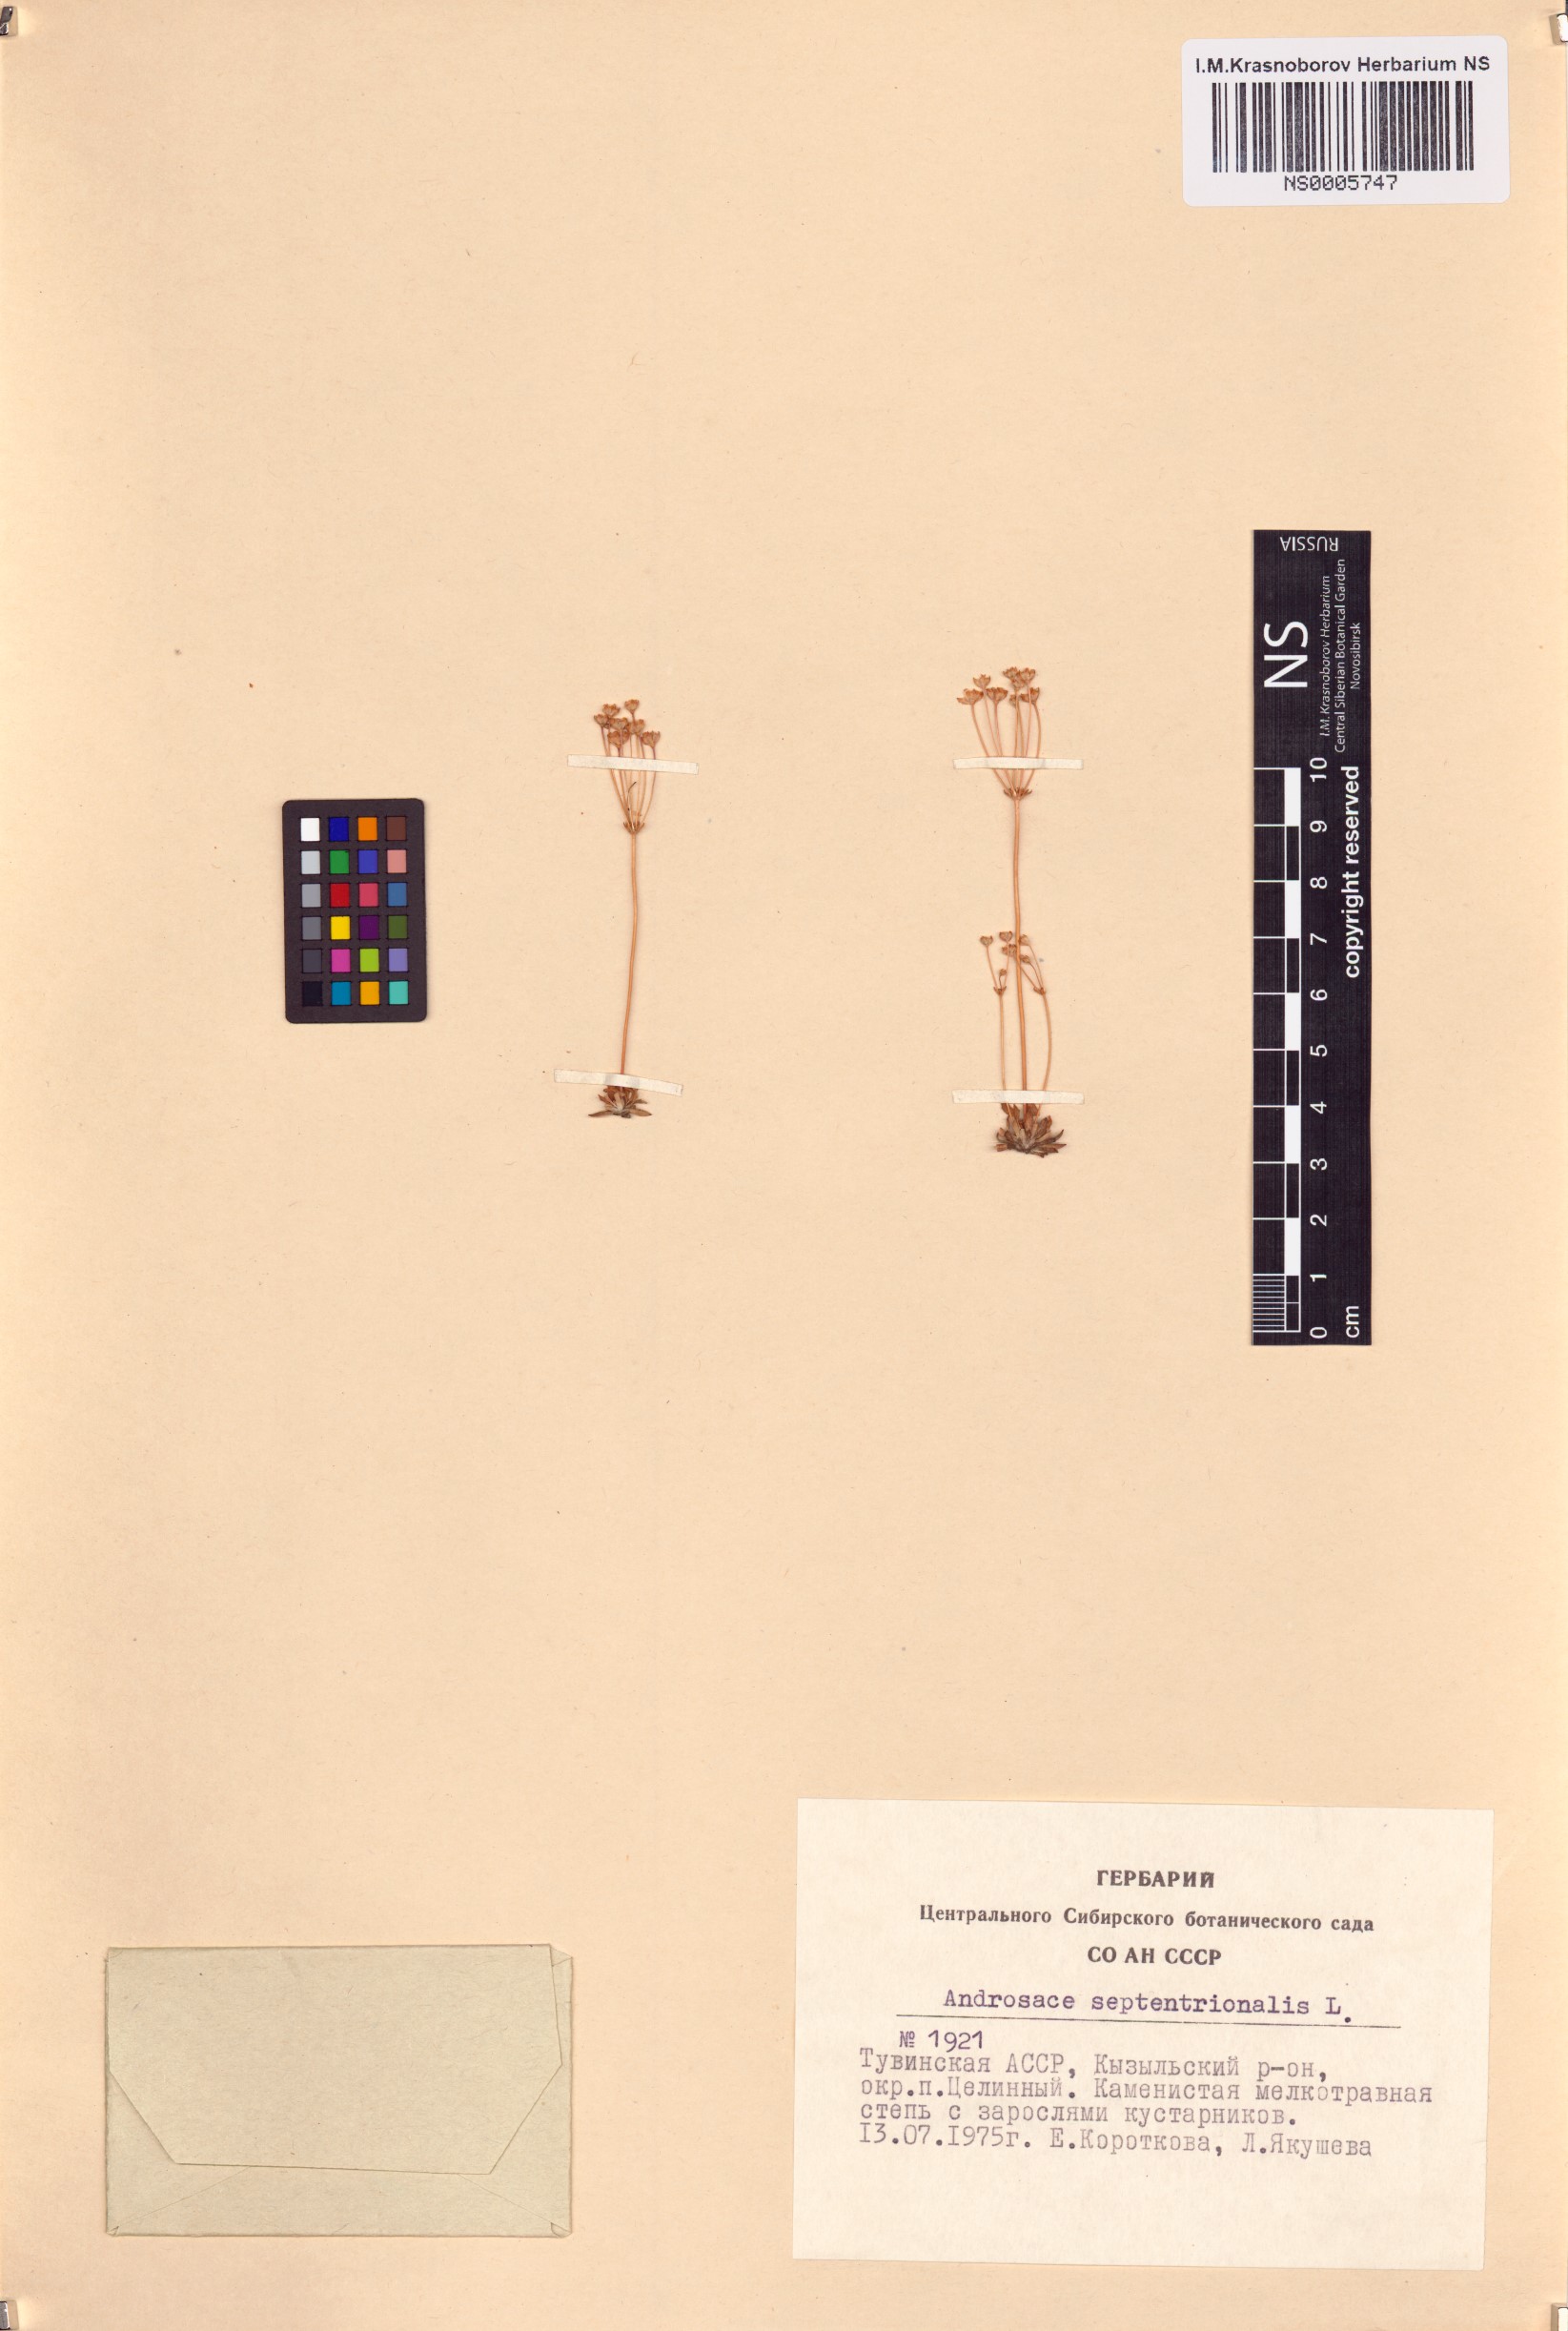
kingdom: Plantae
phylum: Tracheophyta
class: Magnoliopsida
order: Ericales
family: Primulaceae
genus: Androsace
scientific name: Androsace septentrionalis
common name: Hairy northern fairy-candelabra
